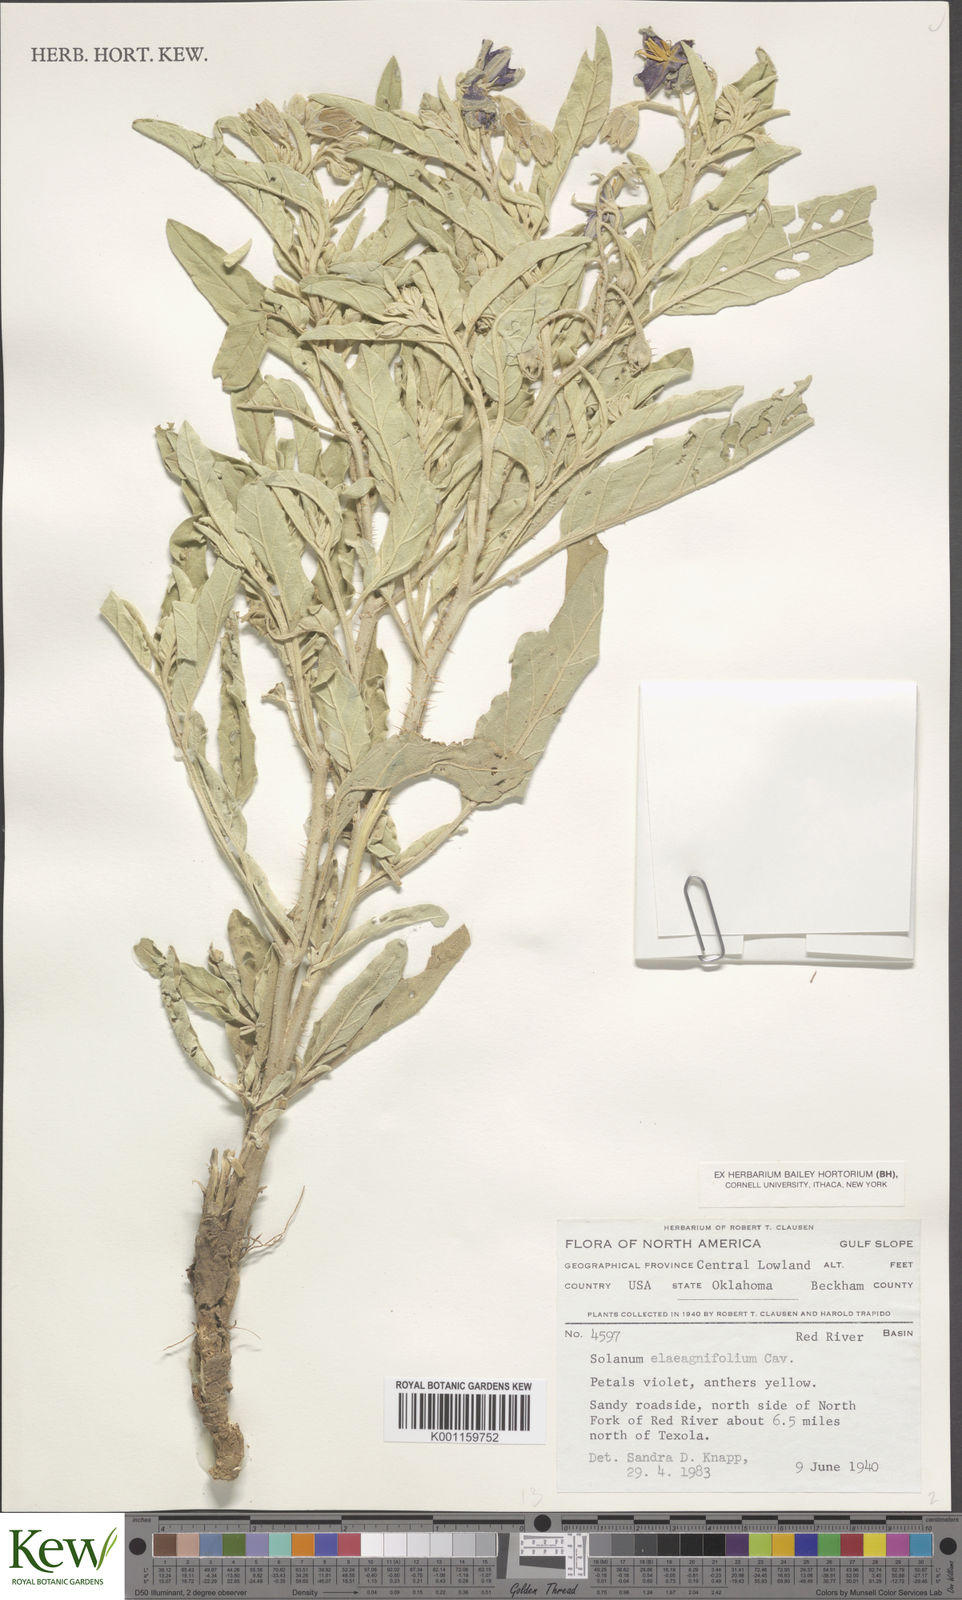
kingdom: Plantae
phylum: Tracheophyta
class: Magnoliopsida
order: Solanales
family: Solanaceae
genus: Solanum
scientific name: Solanum
